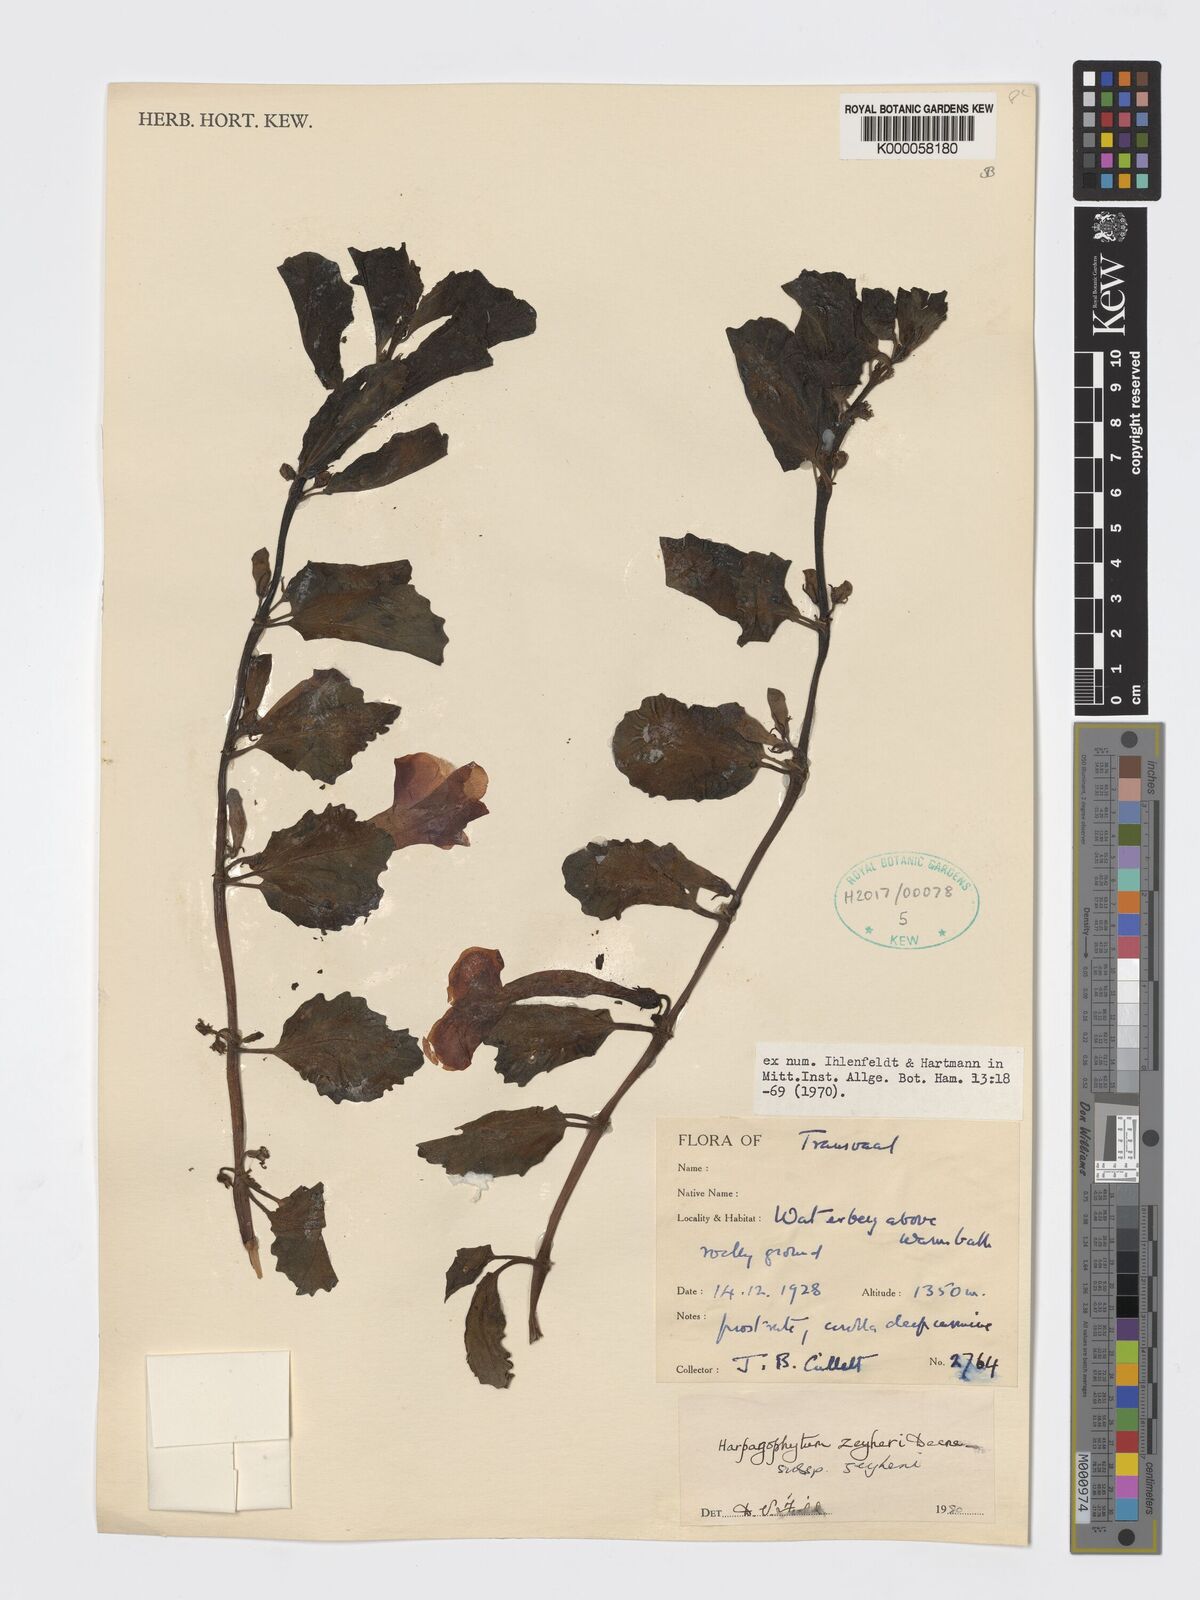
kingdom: Plantae
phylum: Tracheophyta
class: Magnoliopsida
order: Lamiales
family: Pedaliaceae
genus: Harpagophytum
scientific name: Harpagophytum zeyheri
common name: Grappleplant
